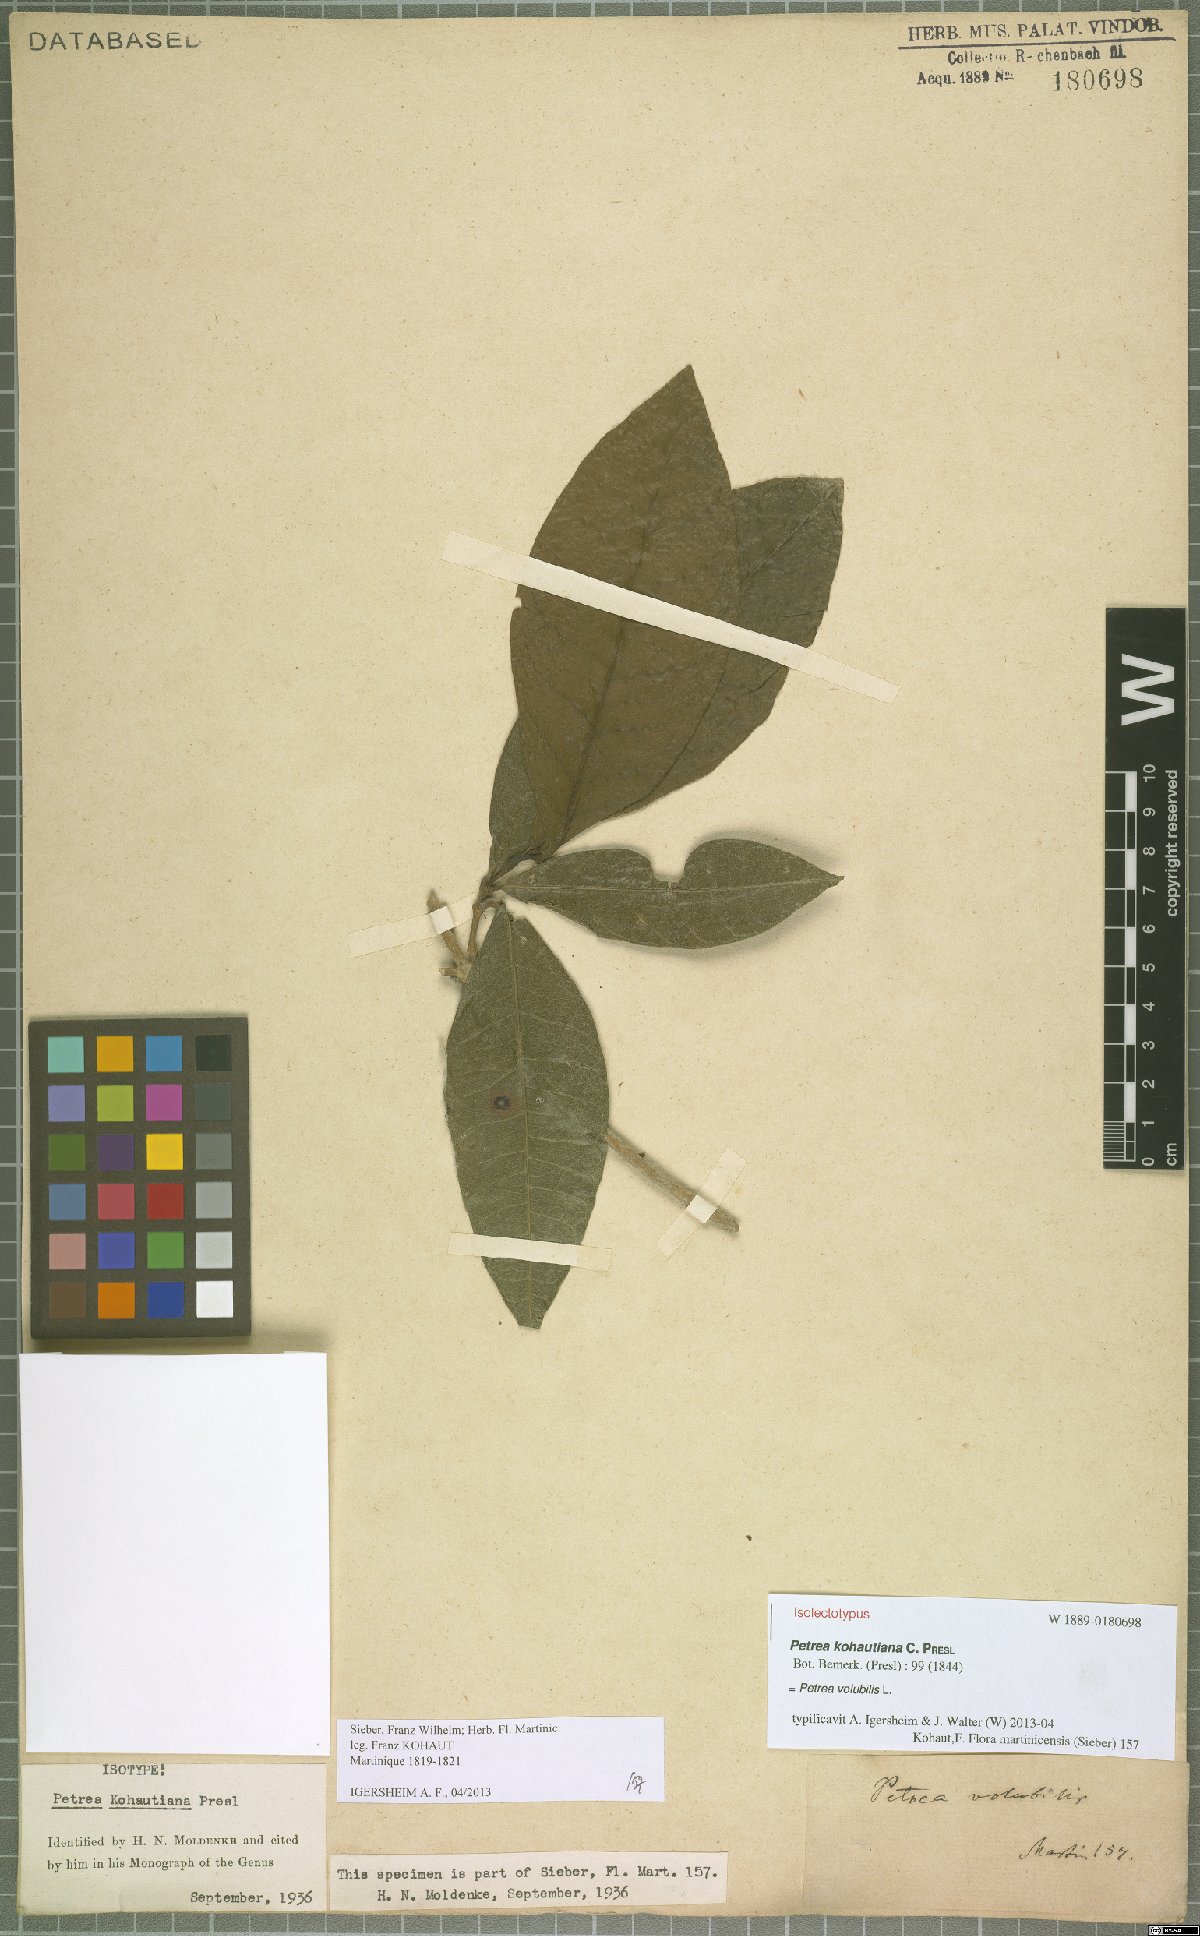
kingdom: Plantae
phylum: Tracheophyta
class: Magnoliopsida
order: Lamiales
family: Verbenaceae
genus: Petrea
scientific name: Petrea volubilis
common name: Queen's-wreath
